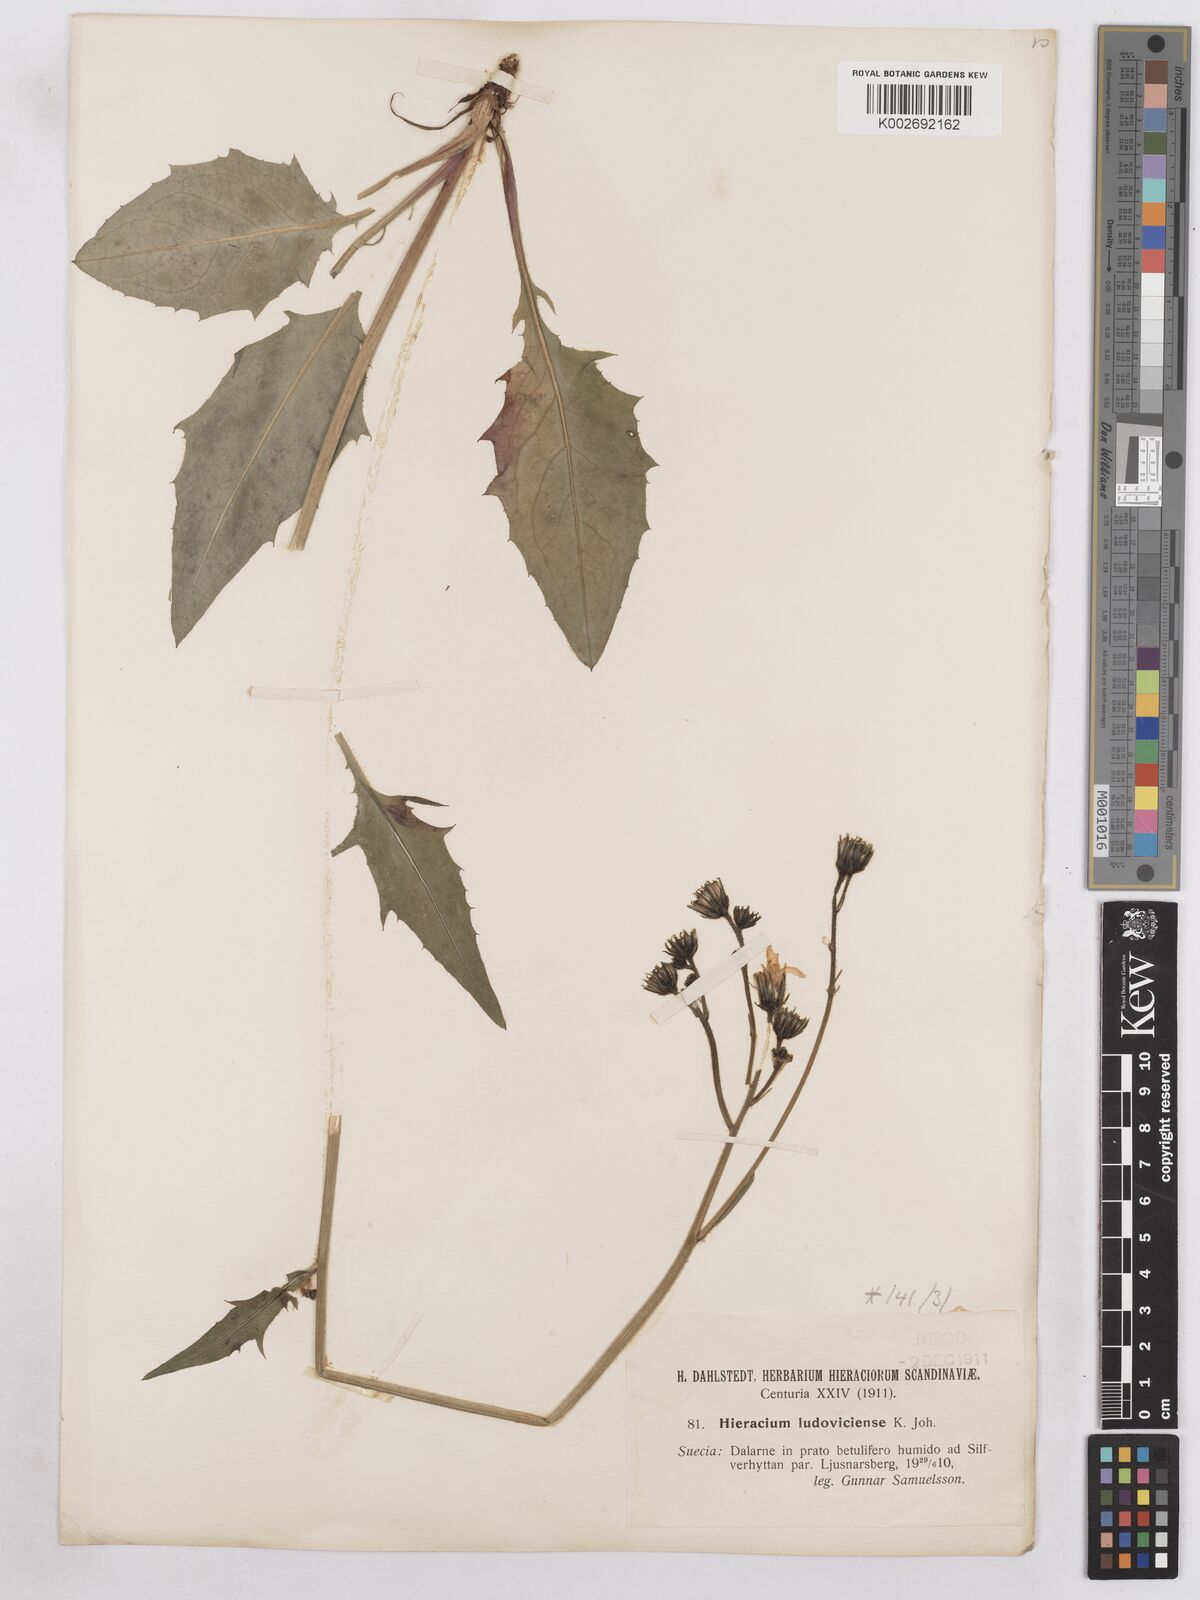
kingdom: Plantae
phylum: Tracheophyta
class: Magnoliopsida
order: Asterales
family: Asteraceae
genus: Hieracium
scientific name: Hieracium diaphanoides
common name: Fine-bracted hawkweed
